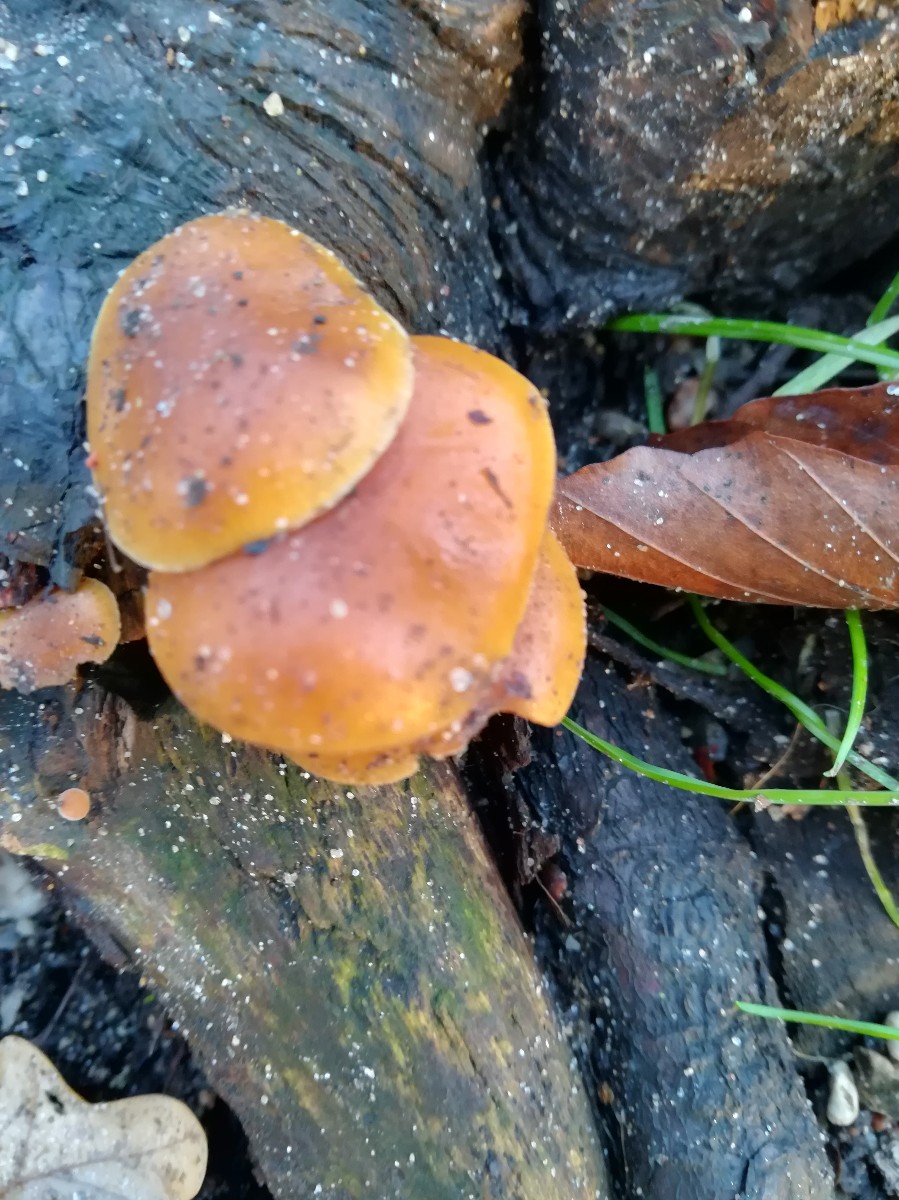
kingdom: Fungi
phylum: Basidiomycota
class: Agaricomycetes
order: Agaricales
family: Physalacriaceae
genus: Flammulina
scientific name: Flammulina velutipes
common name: gul fløjlsfod
